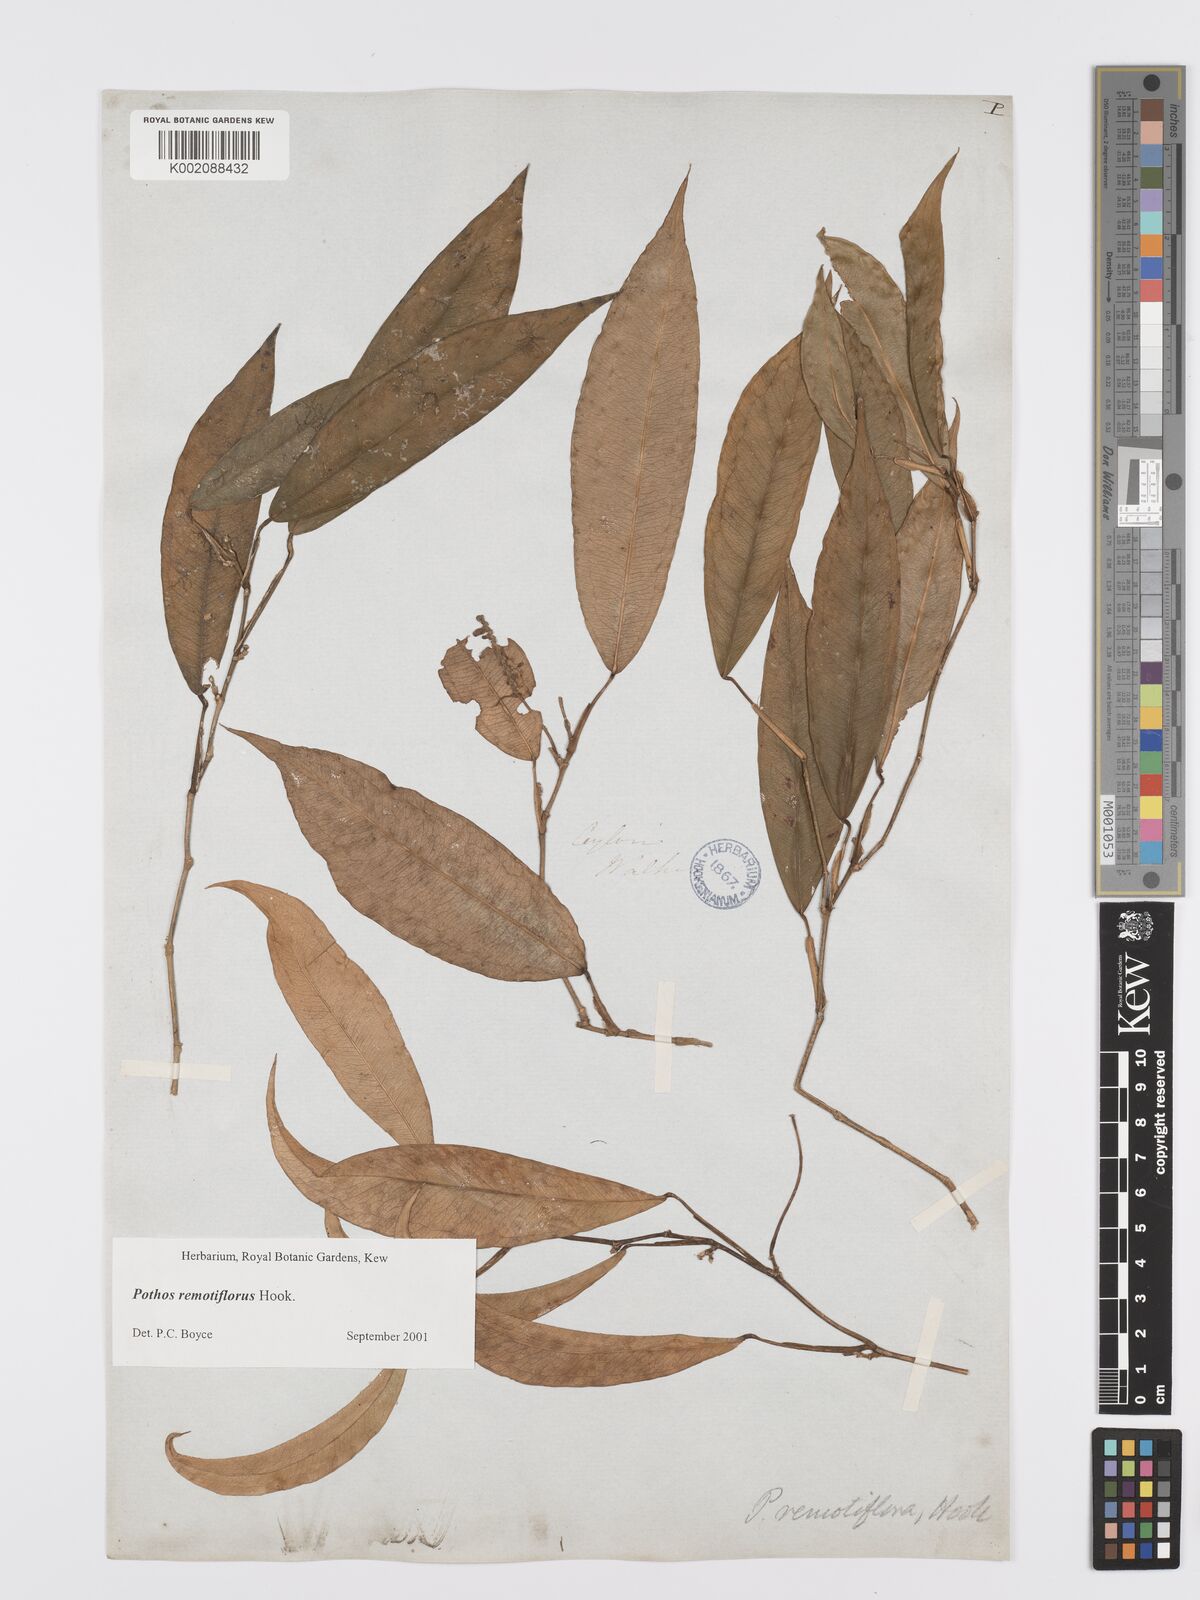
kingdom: Plantae
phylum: Tracheophyta
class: Liliopsida
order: Alismatales
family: Araceae
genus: Pothos
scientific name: Pothos remotiflorus
